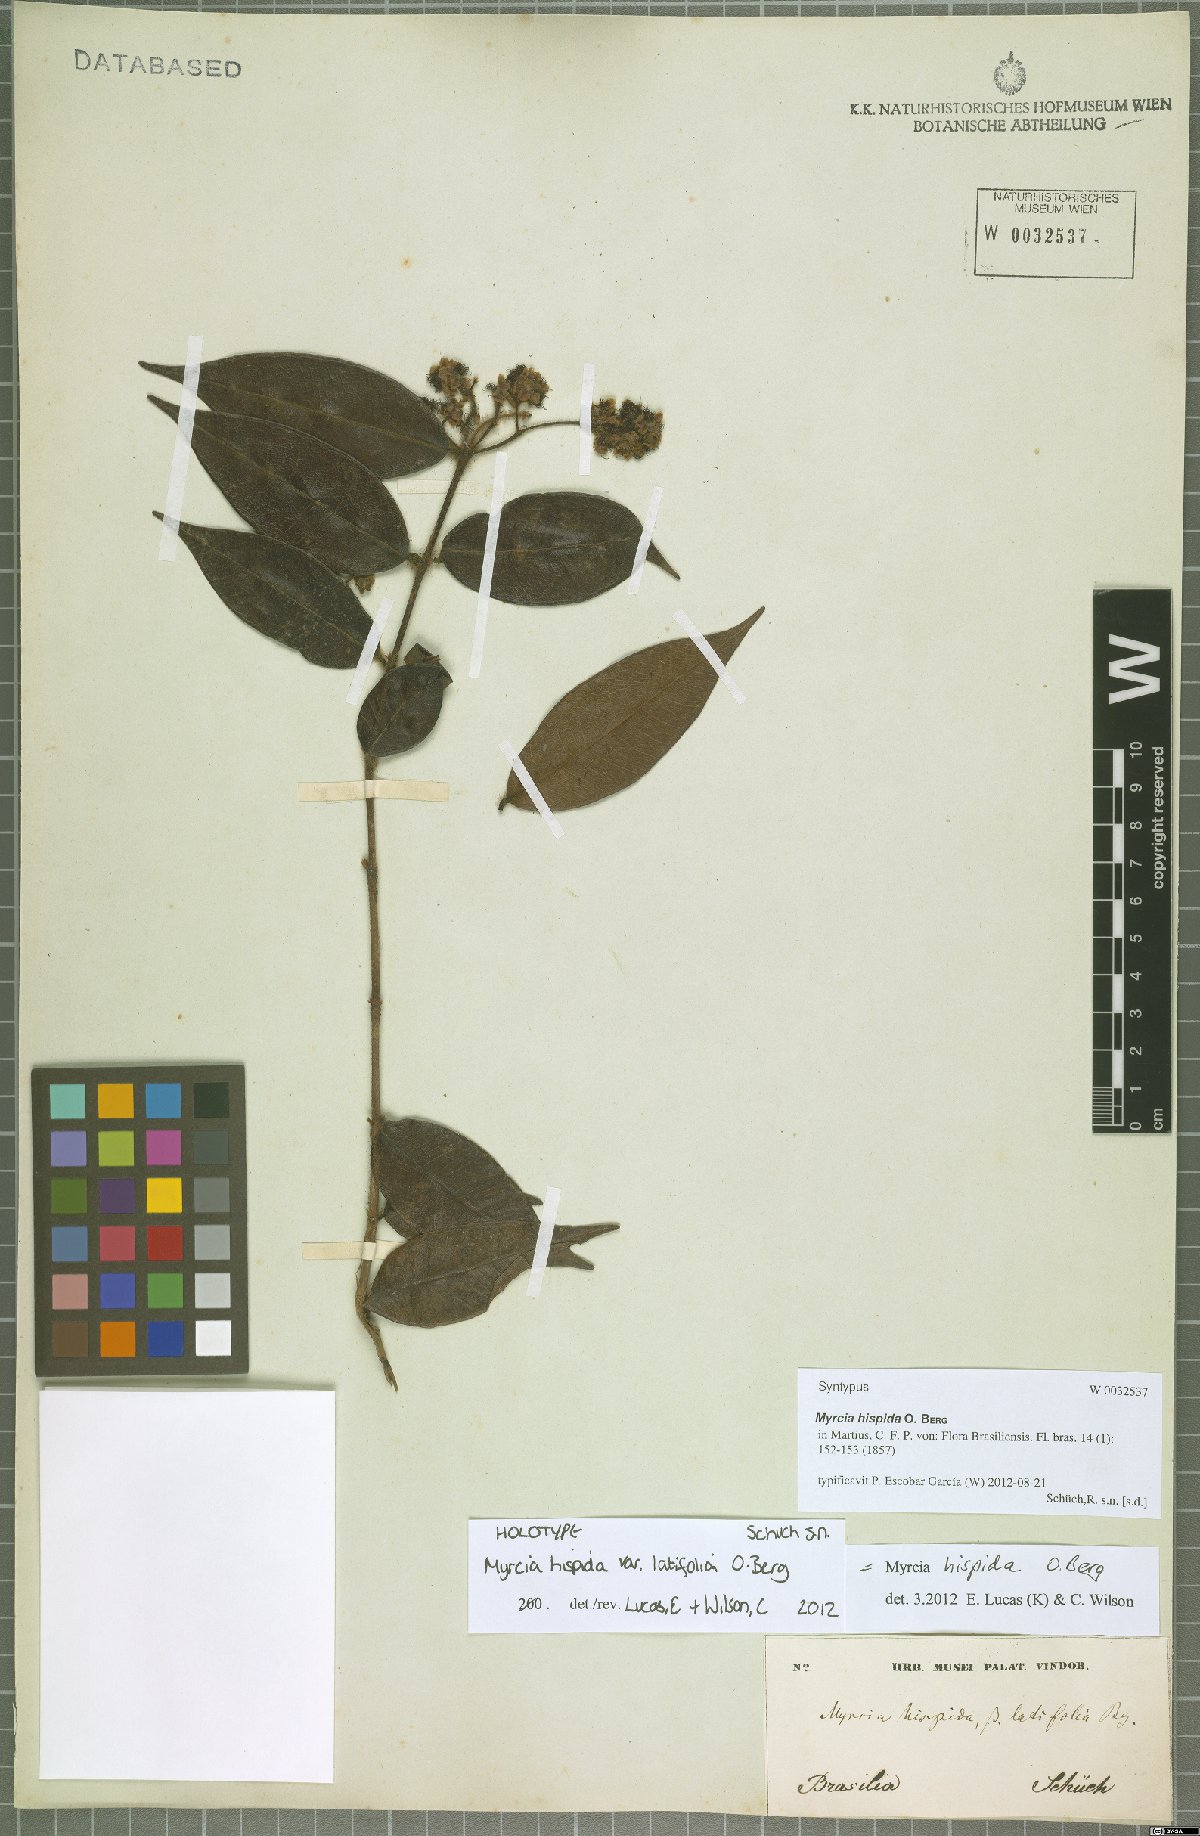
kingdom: Plantae
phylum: Tracheophyta
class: Magnoliopsida
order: Myrtales
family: Myrtaceae
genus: Myrcia
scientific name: Myrcia hispida
